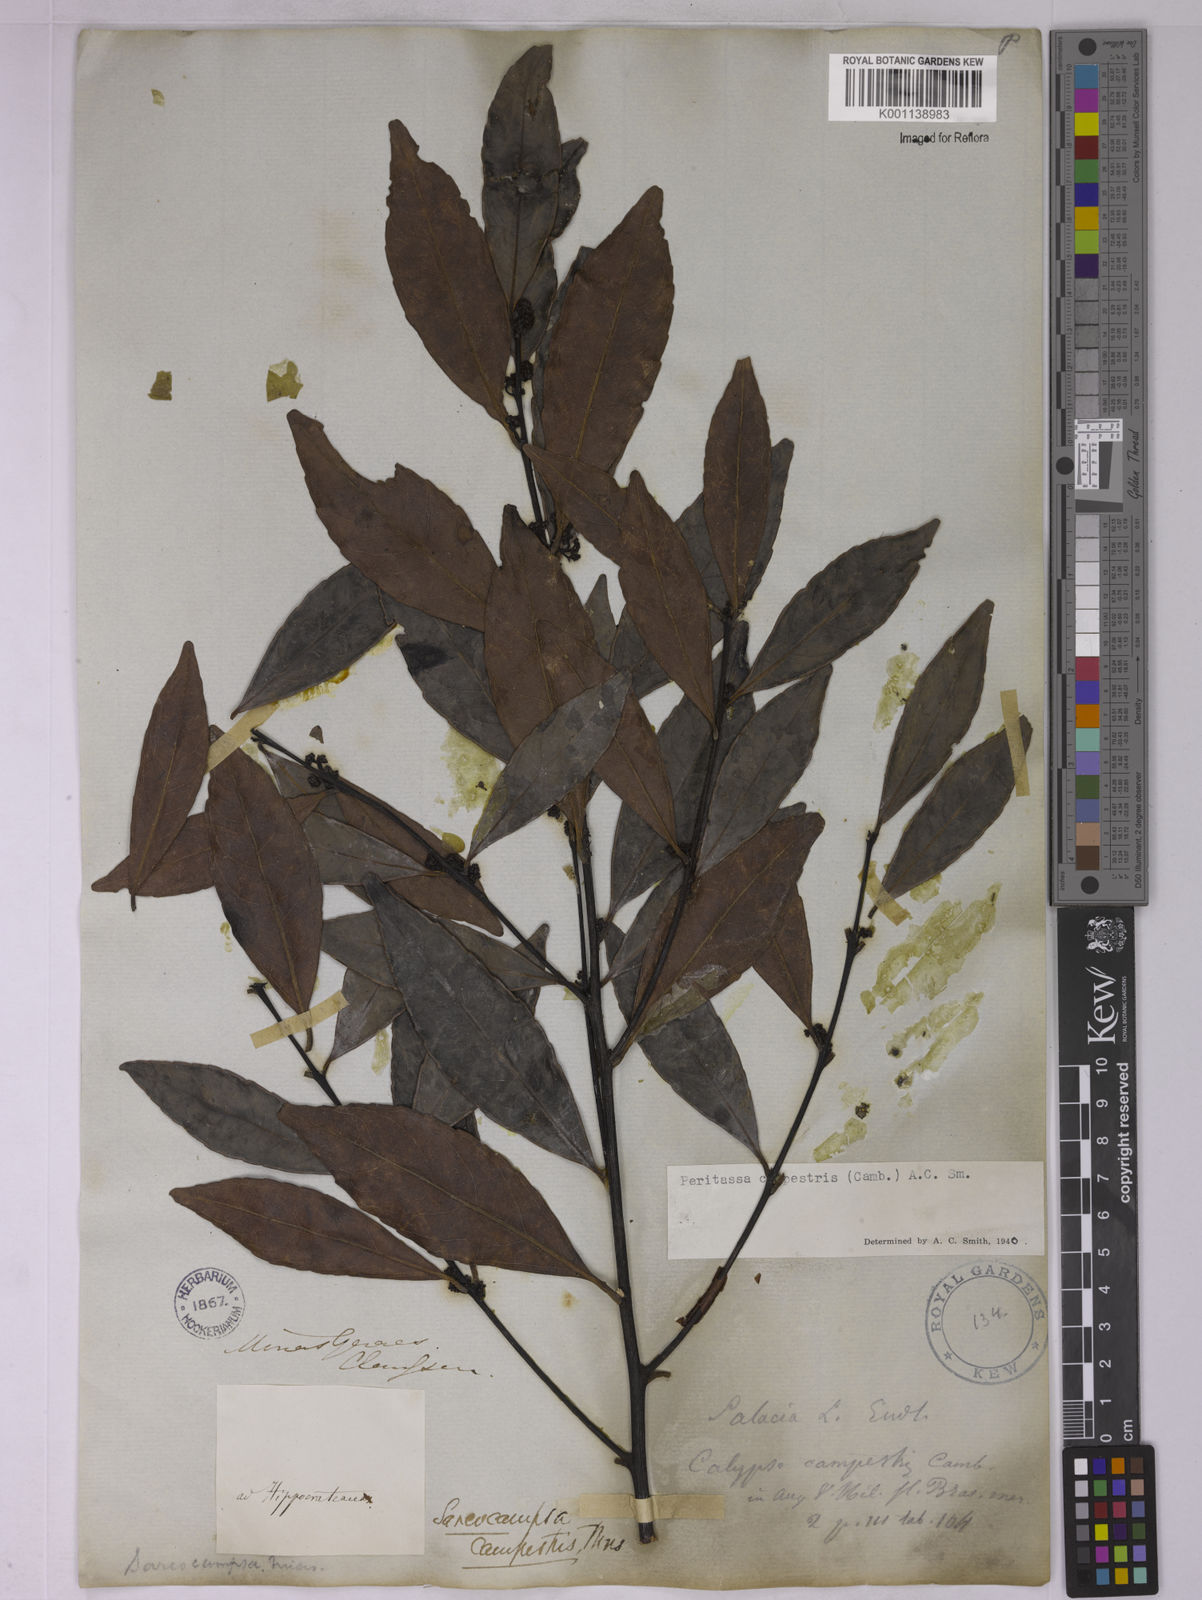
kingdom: Plantae
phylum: Tracheophyta
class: Magnoliopsida
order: Celastrales
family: Celastraceae
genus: Peritassa
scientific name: Peritassa campestris
